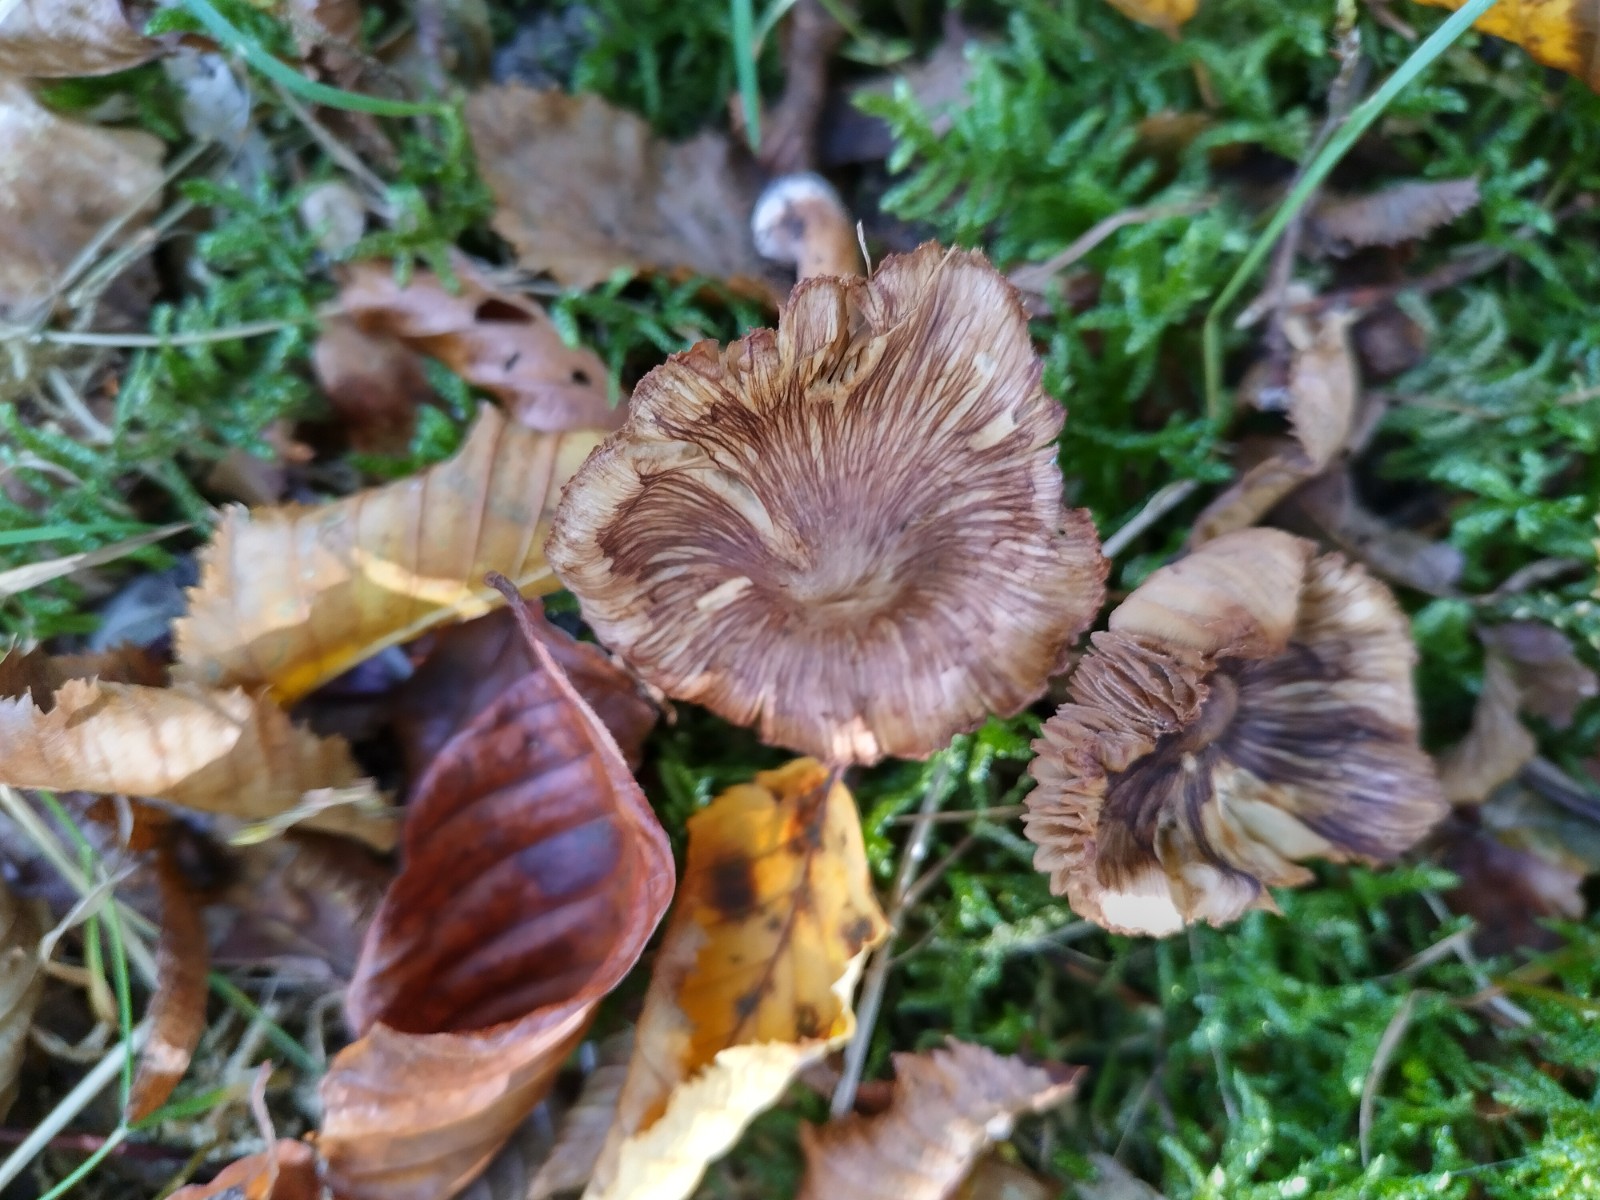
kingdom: Fungi
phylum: Basidiomycota
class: Agaricomycetes
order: Agaricales
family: Inocybaceae
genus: Inosperma
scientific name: Inosperma maculatum
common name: plettet trævlhat
